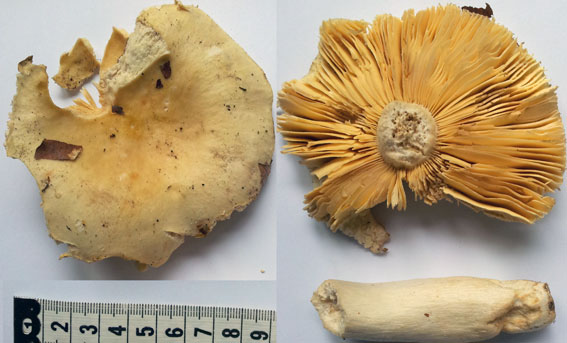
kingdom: Fungi
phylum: Basidiomycota
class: Agaricomycetes
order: Russulales
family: Russulaceae
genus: Russula
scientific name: Russula risigallina
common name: abrikos-skørhat
